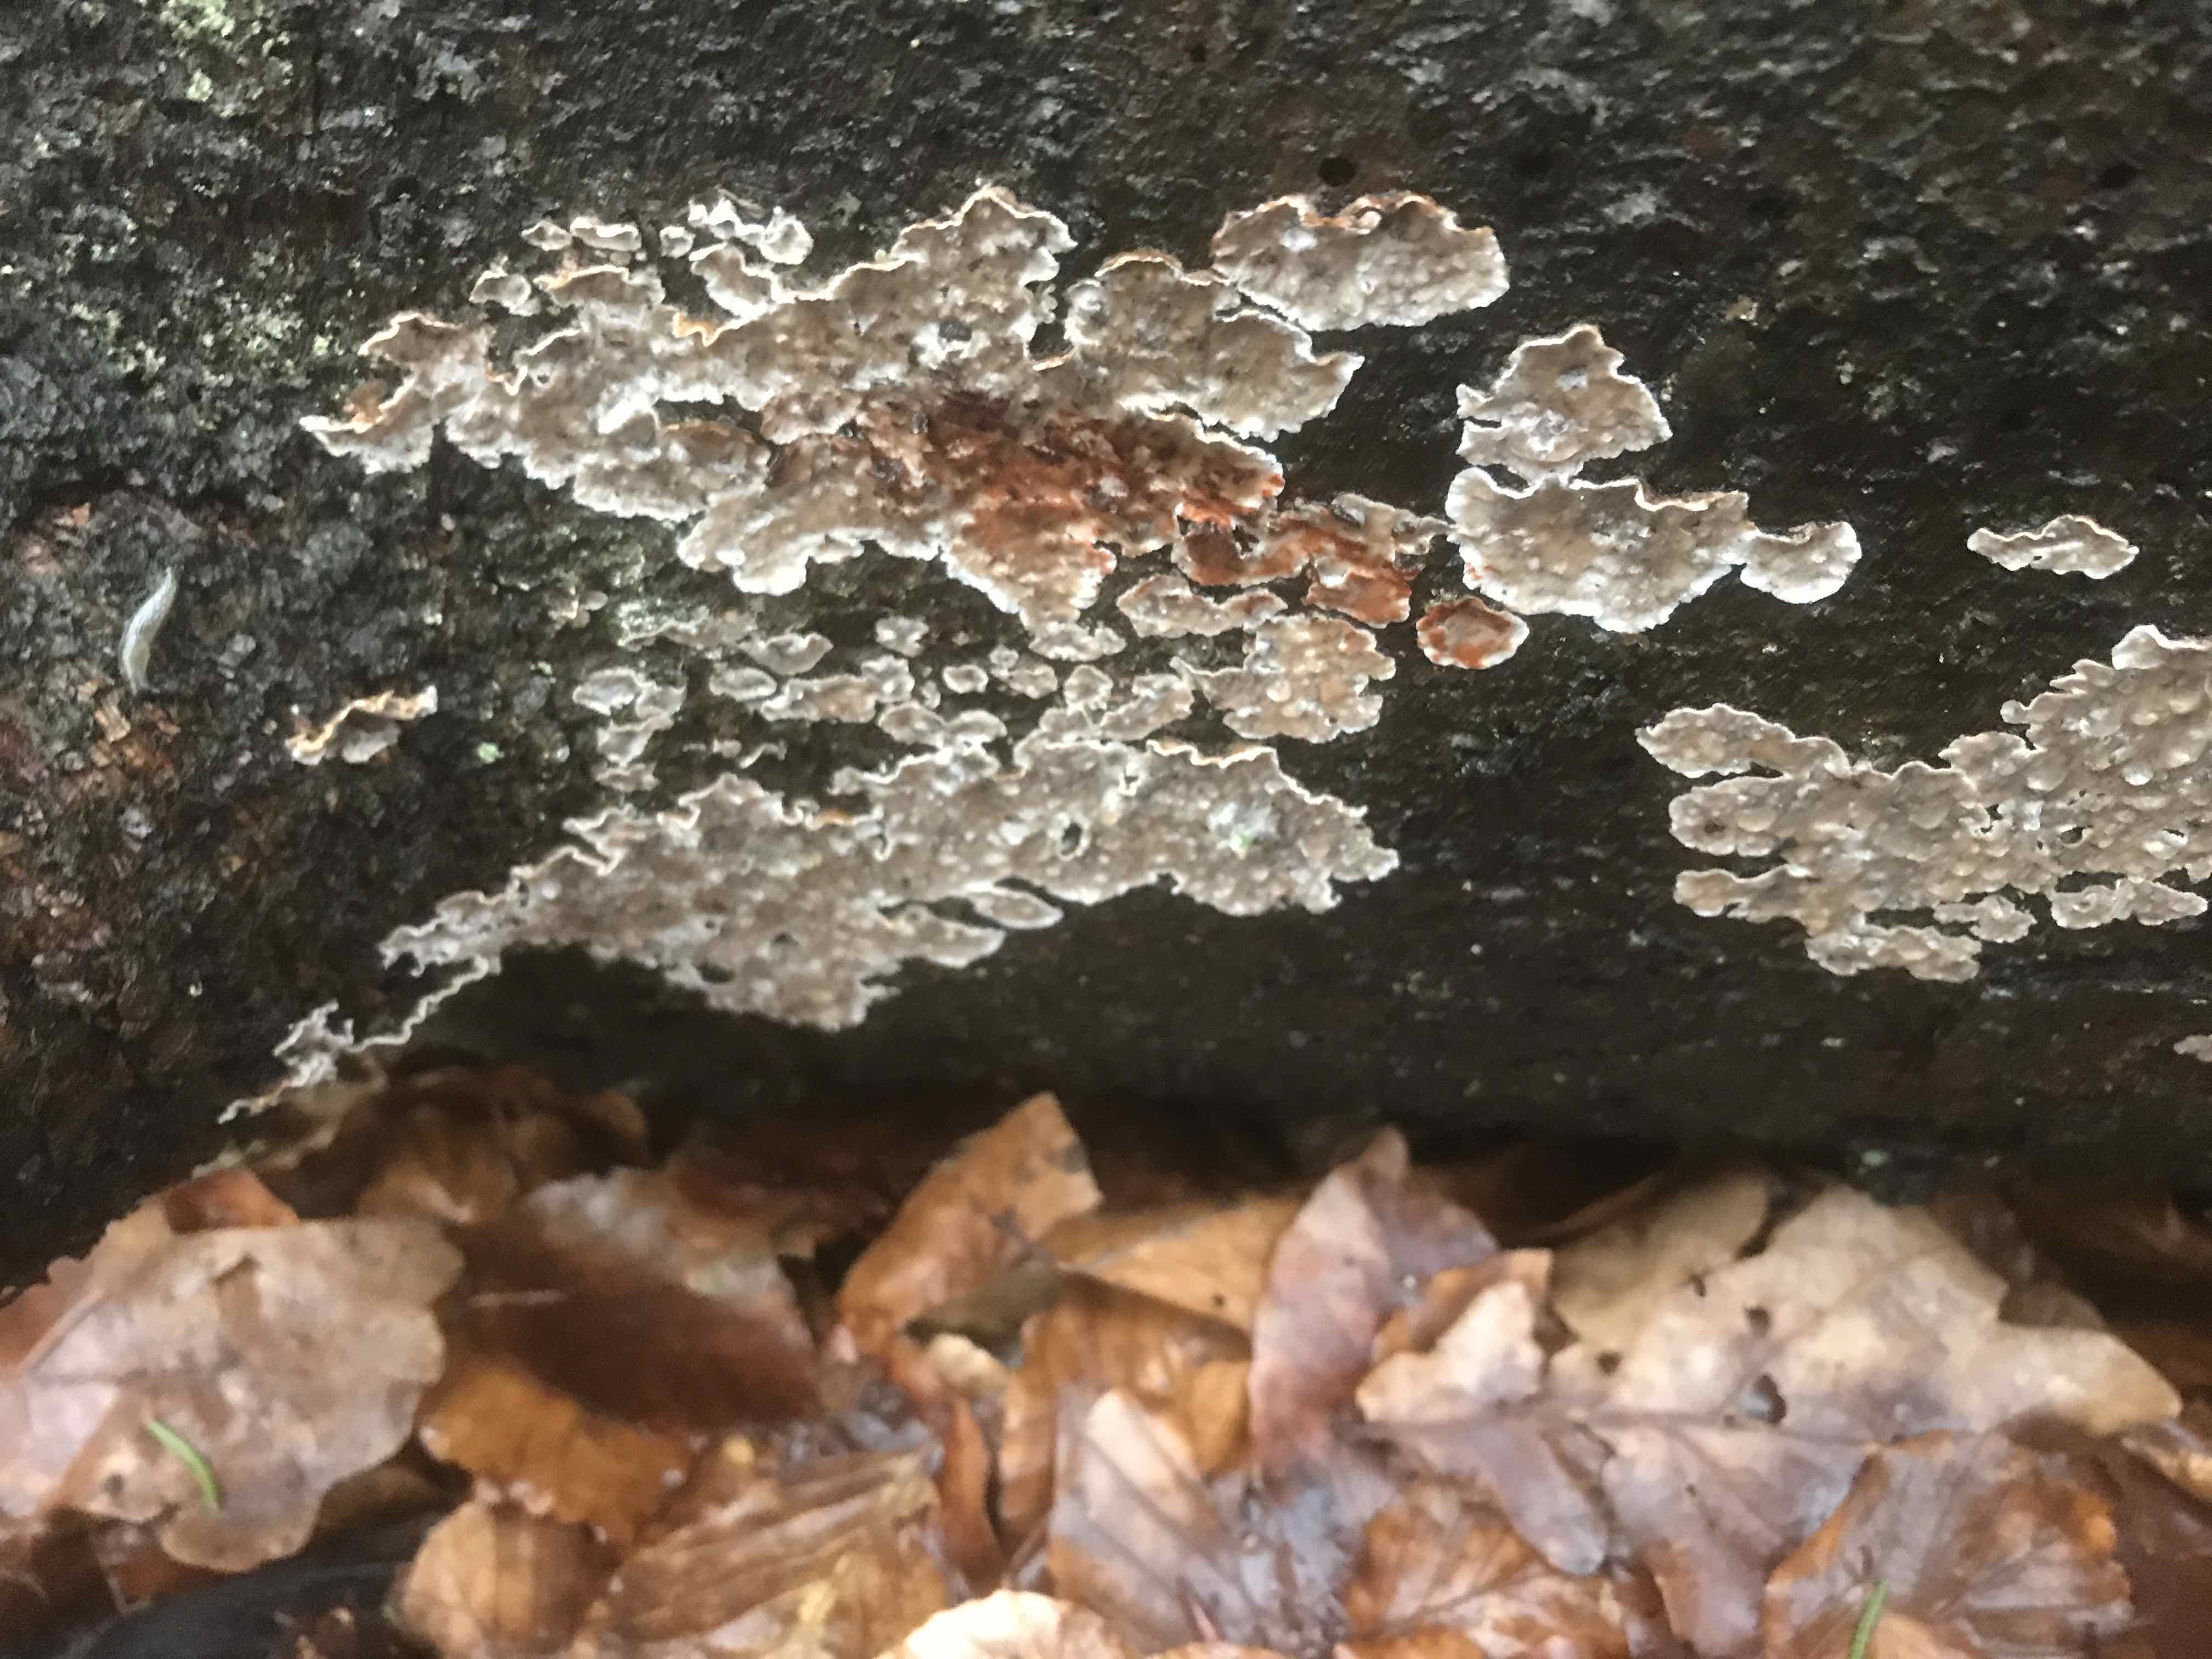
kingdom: Fungi
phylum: Basidiomycota
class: Agaricomycetes
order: Russulales
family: Stereaceae
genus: Stereum
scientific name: Stereum sanguinolentum
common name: blødende lædersvamp
